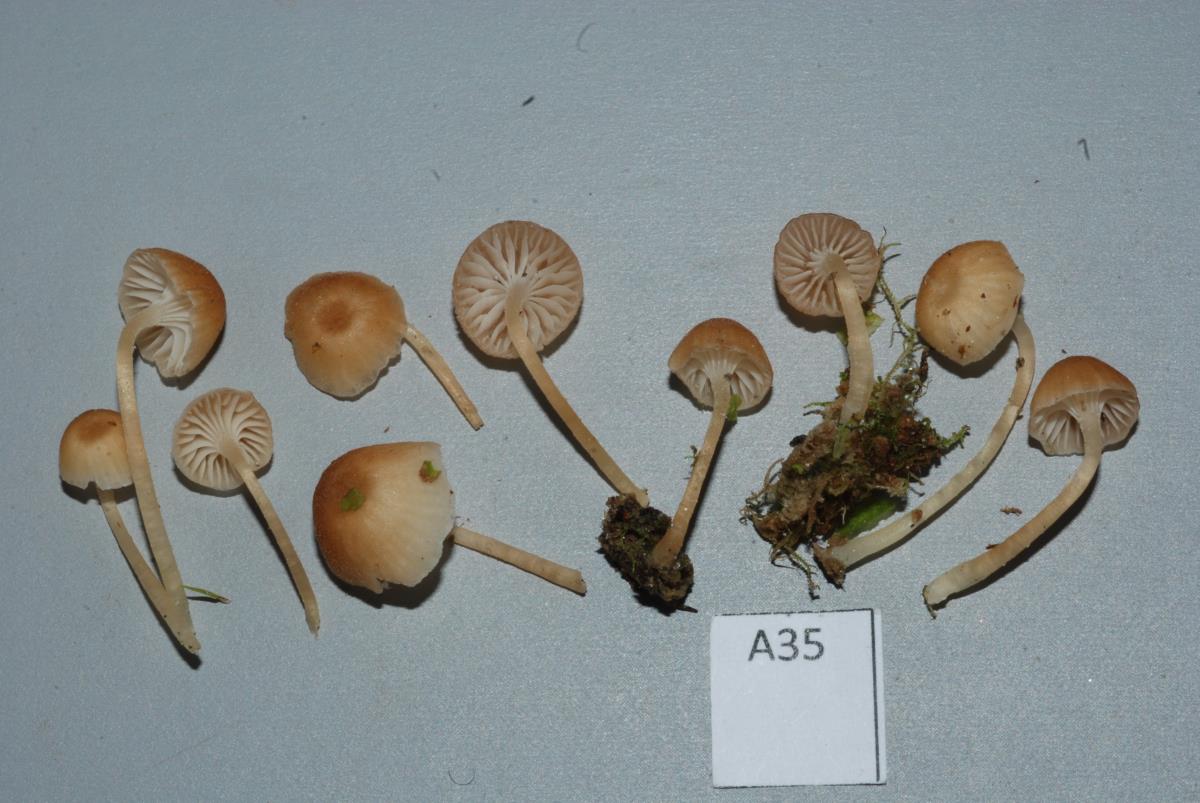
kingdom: Fungi
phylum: Basidiomycota
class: Agaricomycetes
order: Hymenochaetales
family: Rickenellaceae
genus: Rickenella
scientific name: Rickenella
